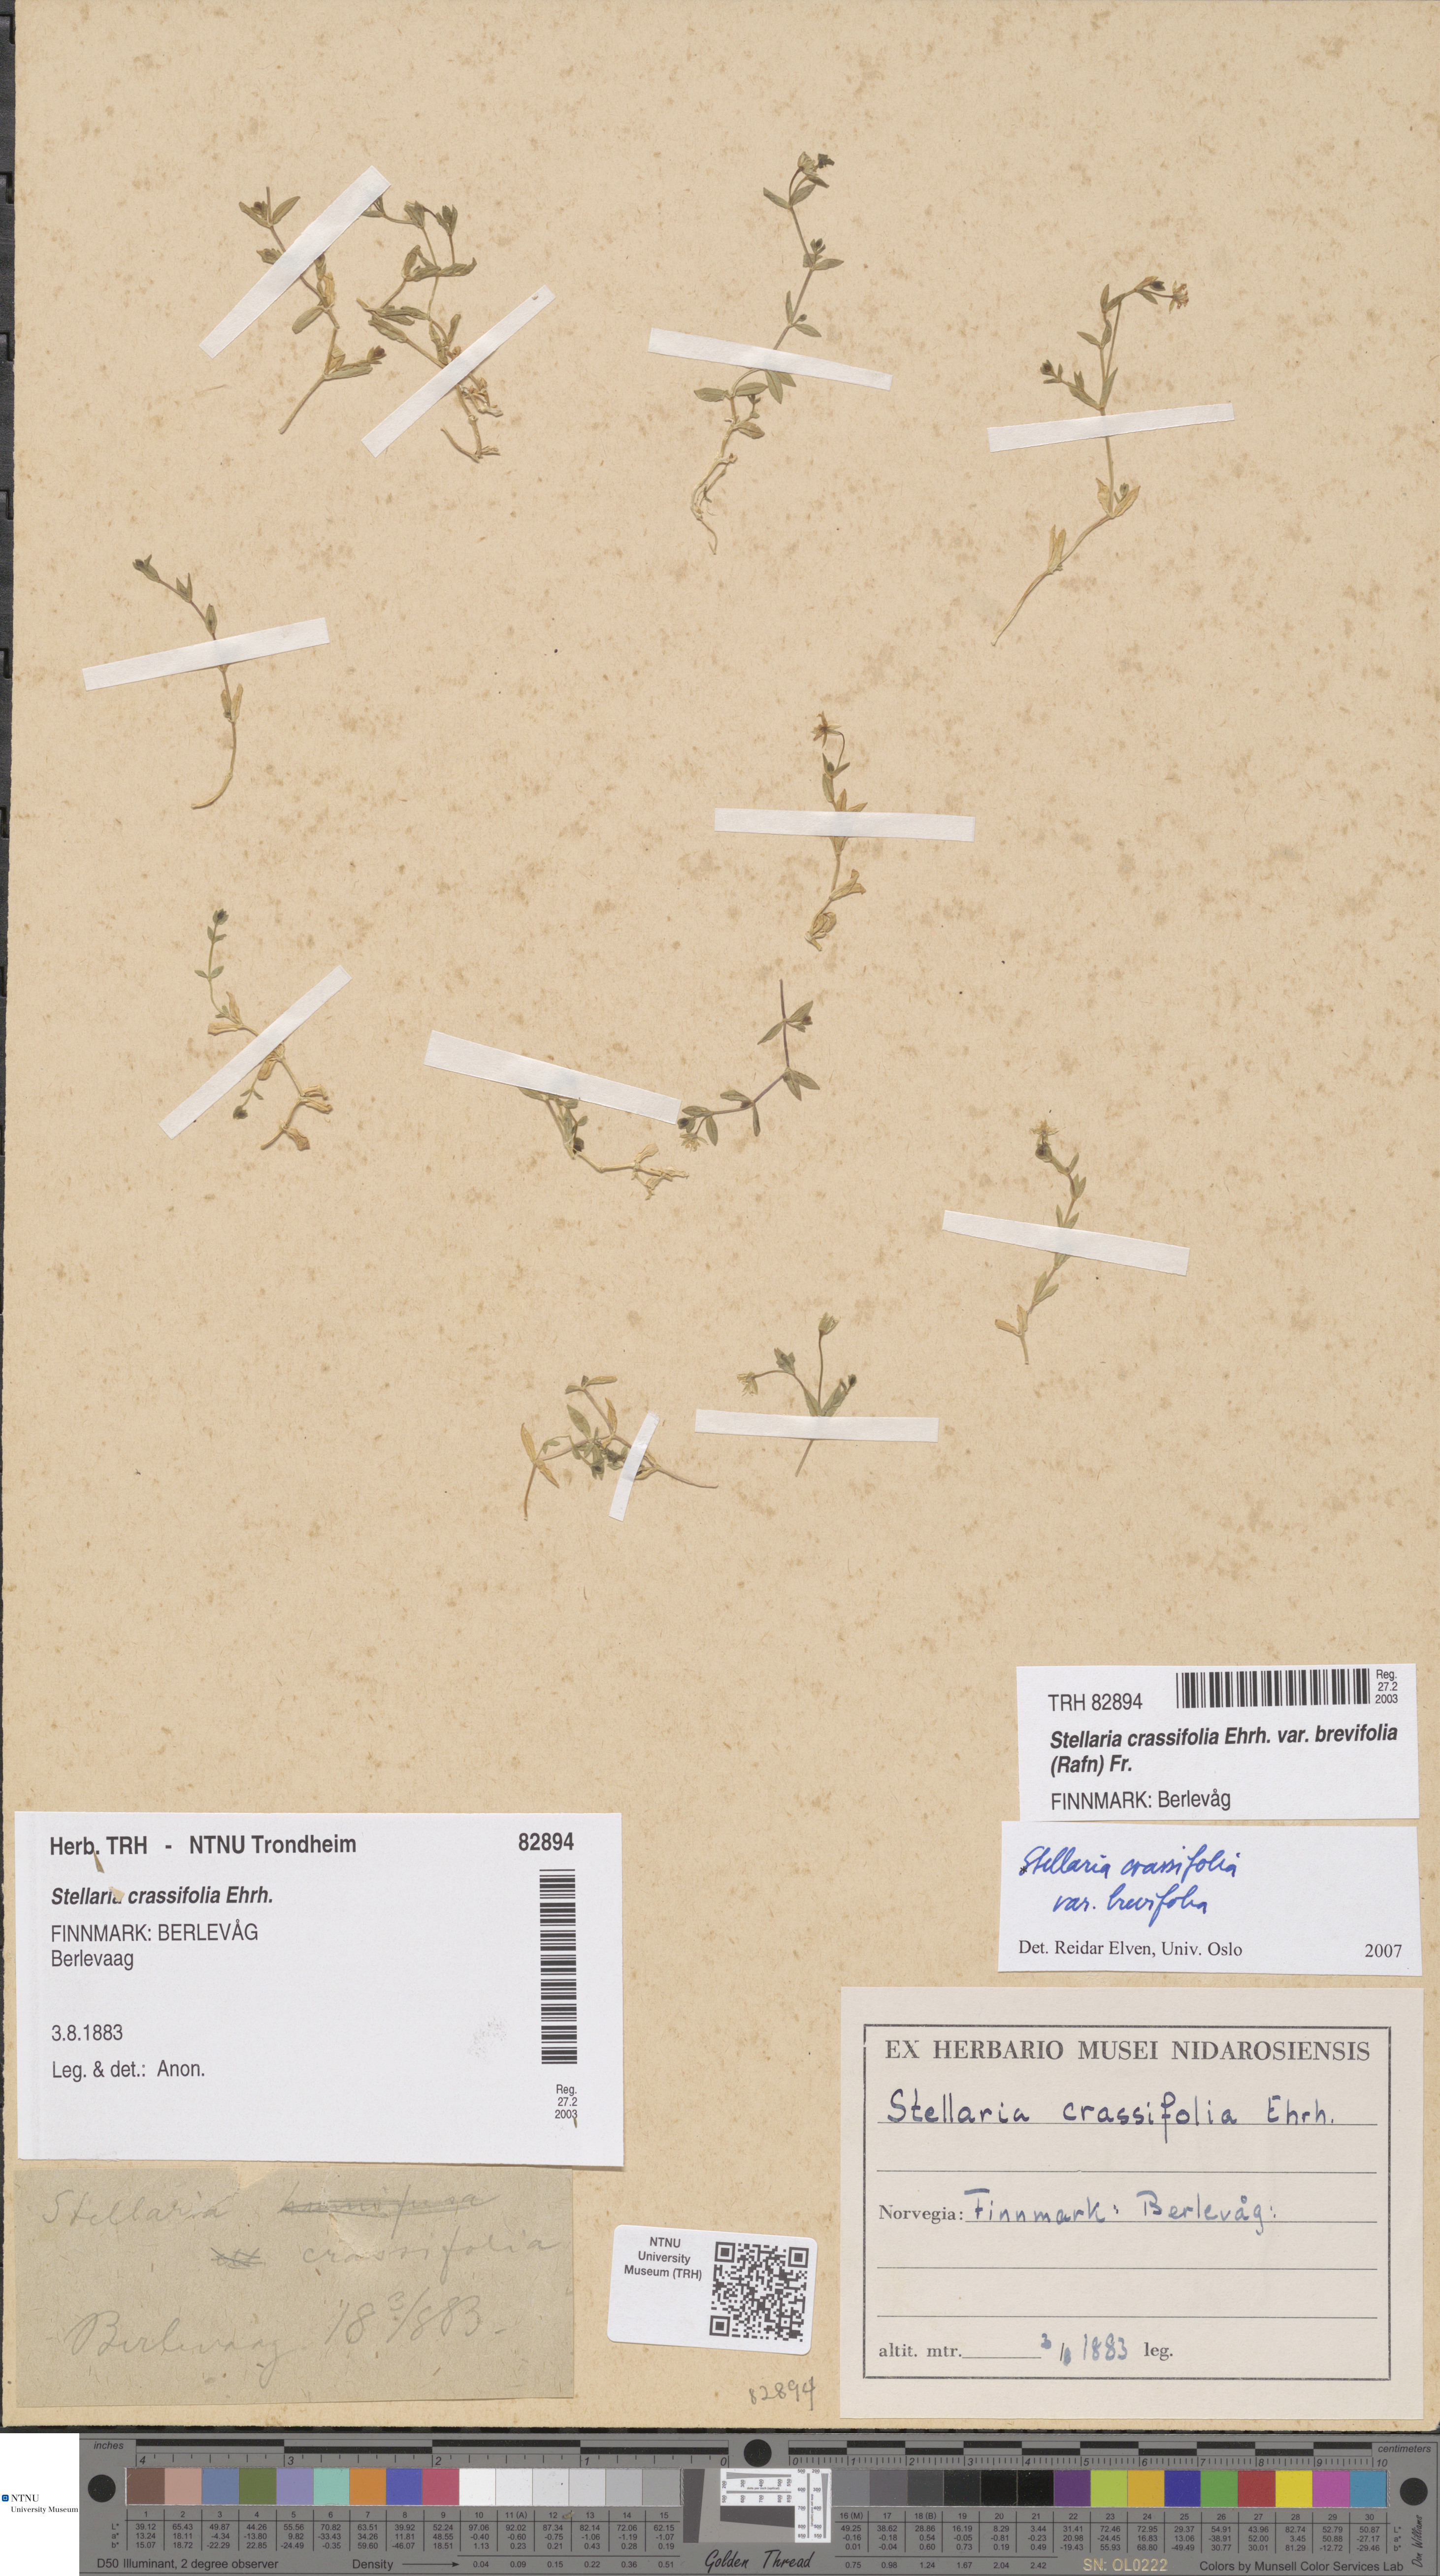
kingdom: Plantae
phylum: Tracheophyta
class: Magnoliopsida
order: Caryophyllales
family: Caryophyllaceae
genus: Stellaria
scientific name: Stellaria crassifolia
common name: Fleshy starwort
